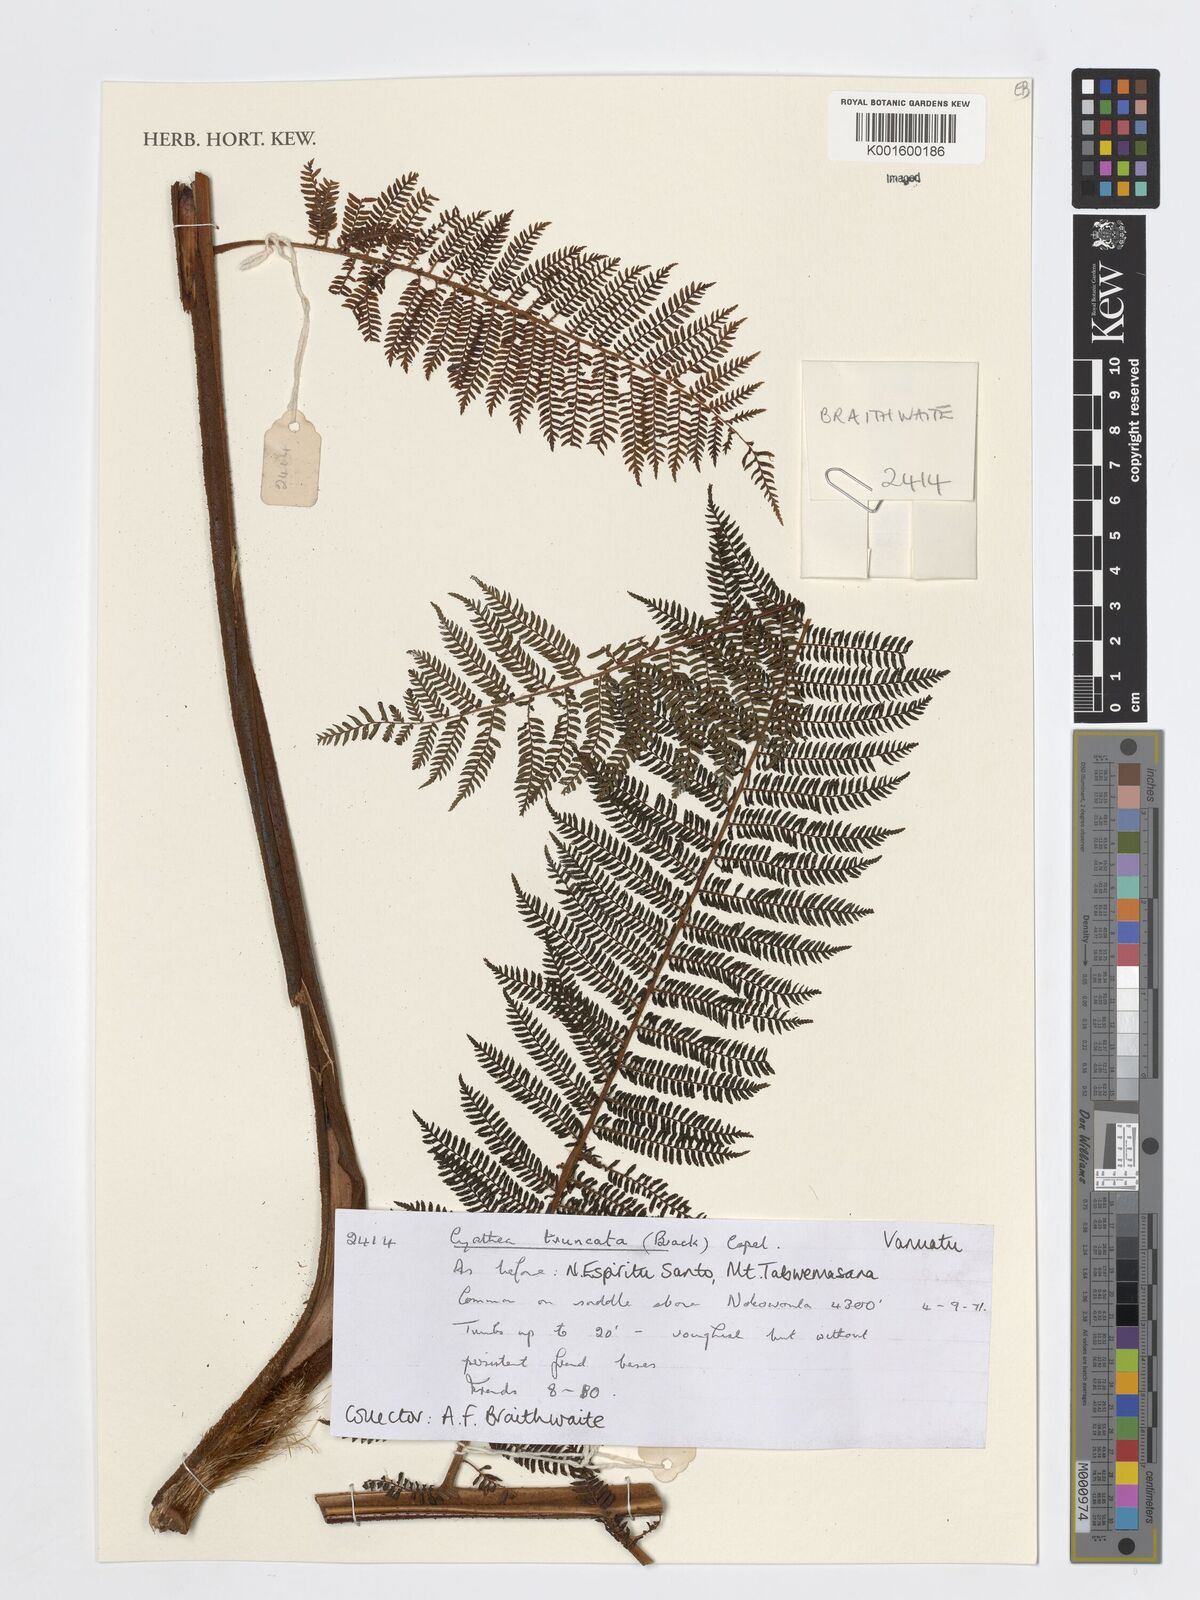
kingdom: Plantae
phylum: Tracheophyta
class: Polypodiopsida
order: Cyatheales
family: Cyatheaceae
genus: Sphaeropteris
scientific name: Sphaeropteris truncata
